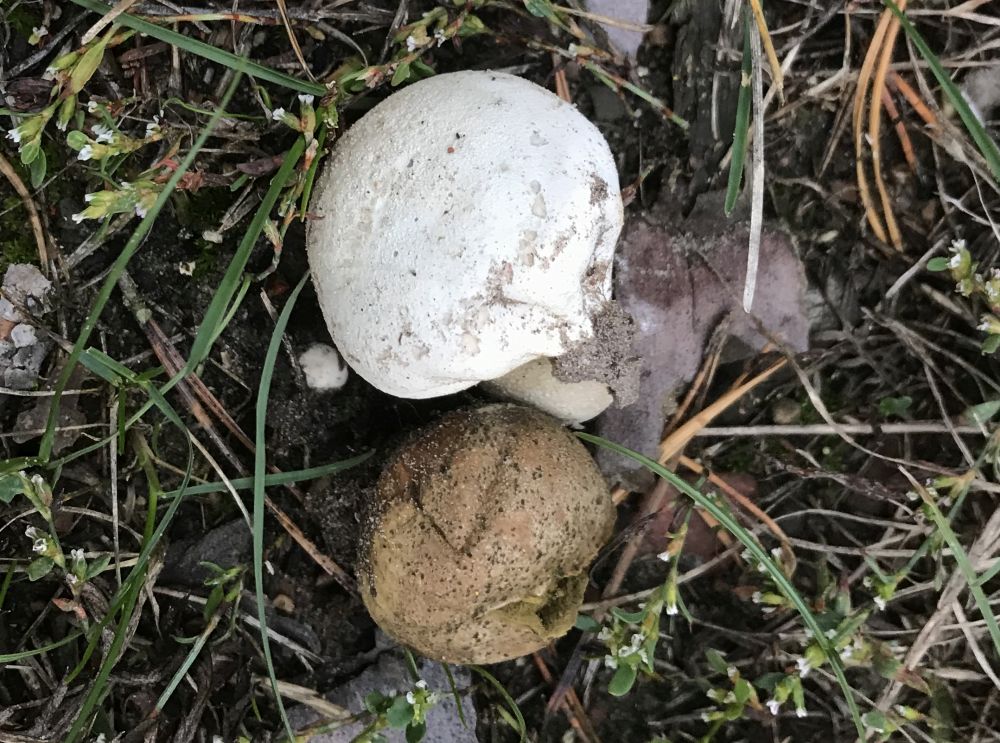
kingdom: Fungi
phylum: Basidiomycota
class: Agaricomycetes
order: Agaricales
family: Agaricaceae
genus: Lycoperdon
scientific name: Lycoperdon
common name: støvbold
